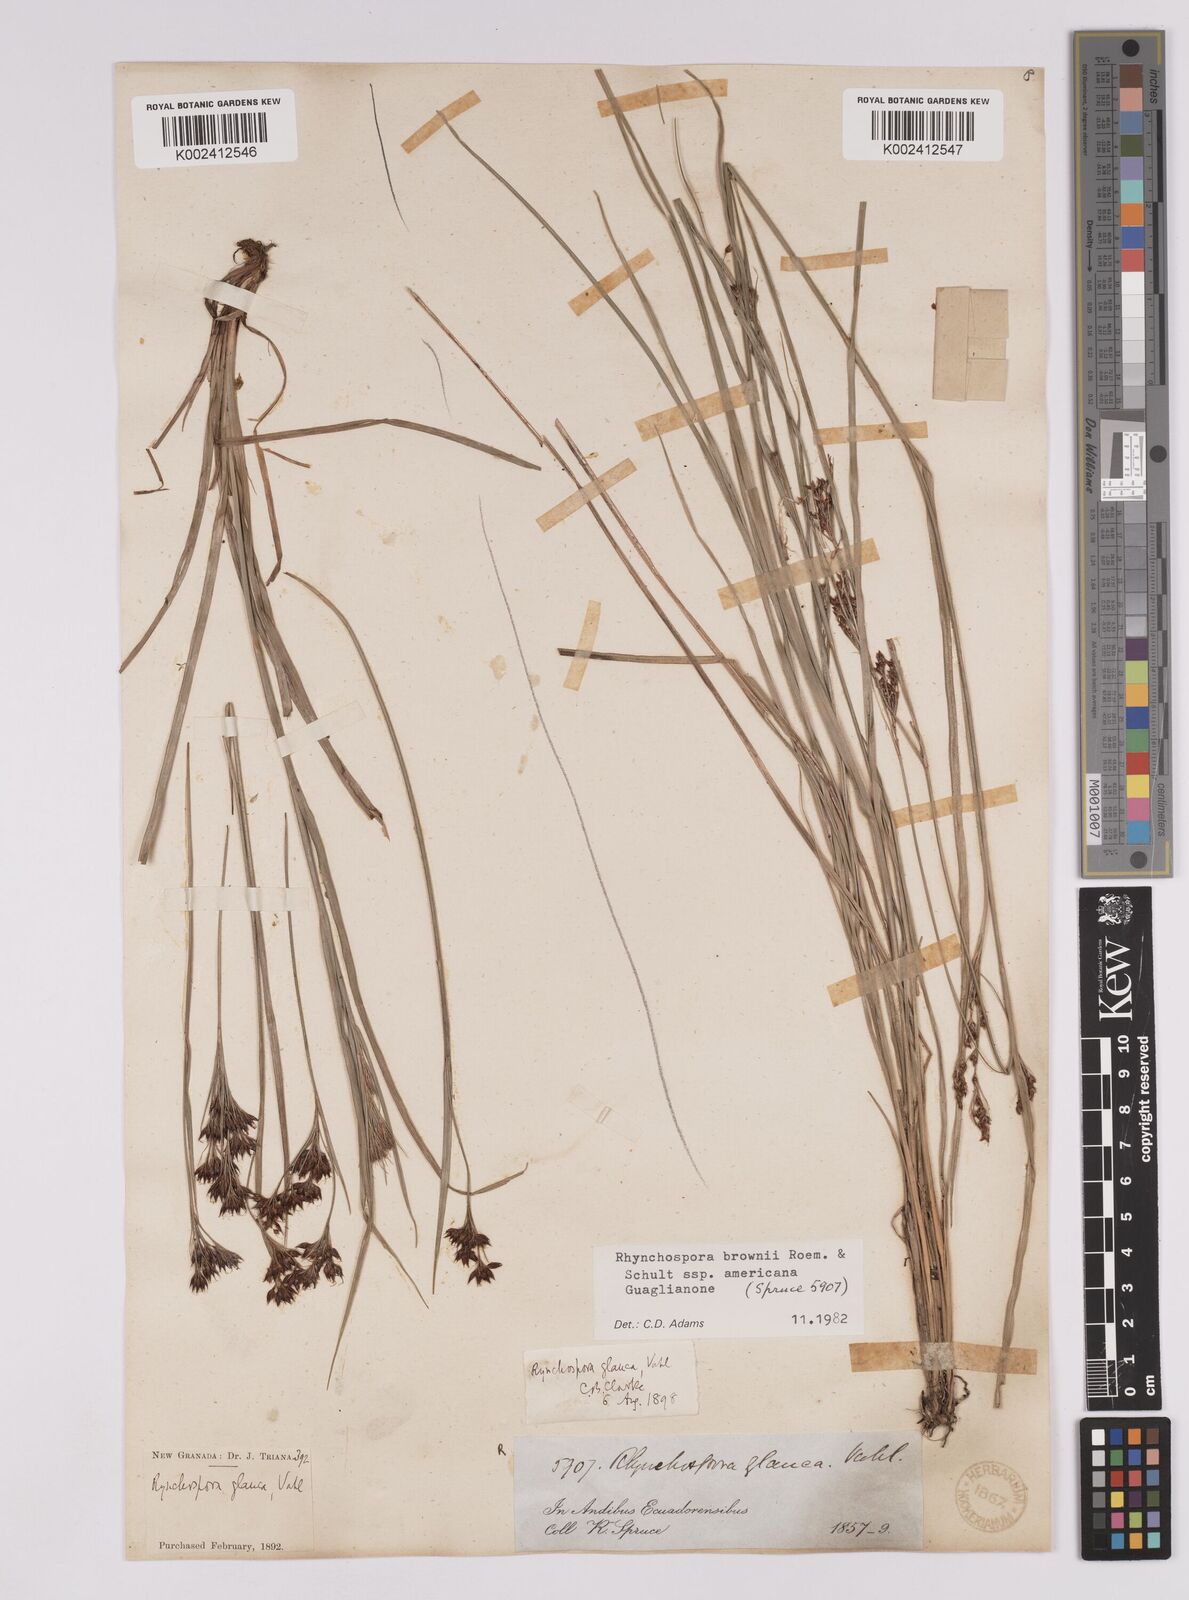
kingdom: Plantae
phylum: Tracheophyta
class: Liliopsida
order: Poales
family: Cyperaceae
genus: Rhynchospora
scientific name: Rhynchospora rugosa
